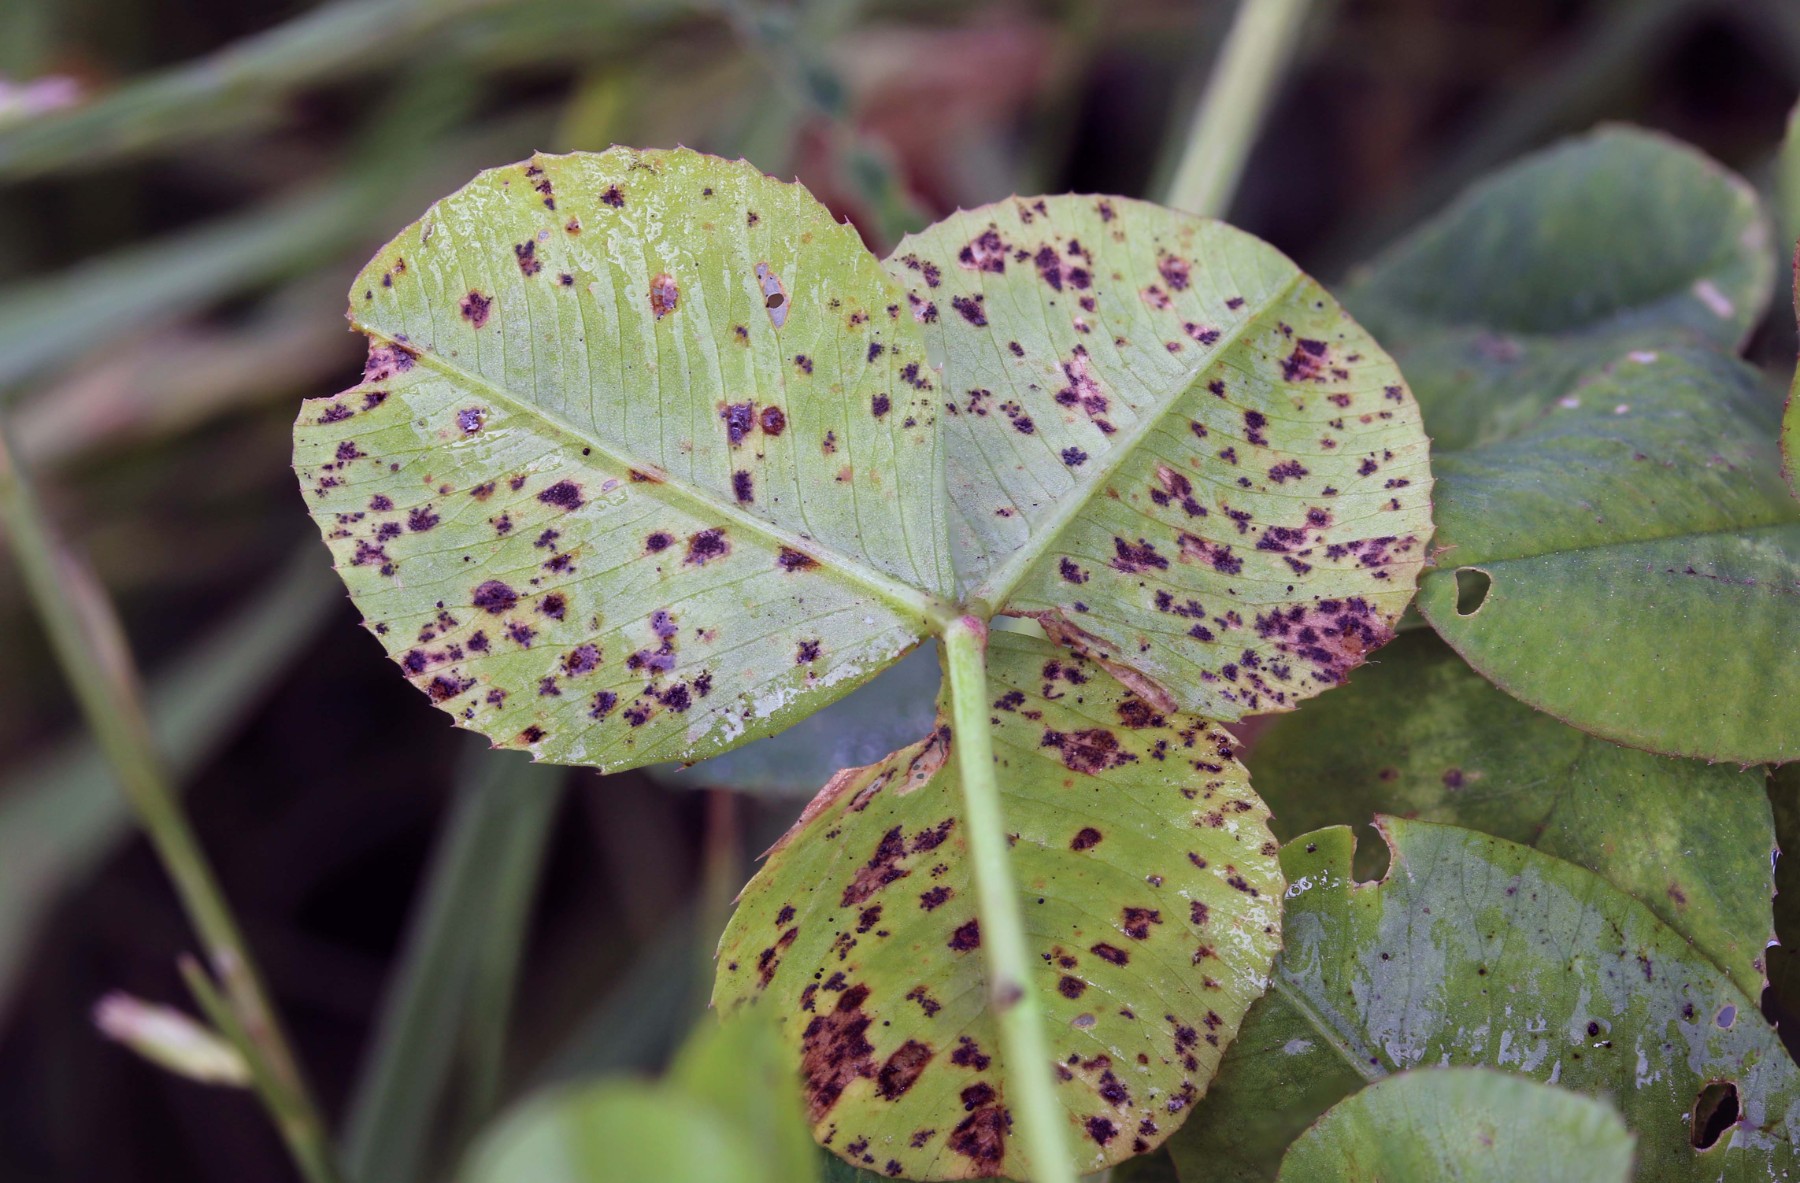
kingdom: Fungi
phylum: Ascomycota
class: Dothideomycetes
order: Mycosphaerellales
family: Mycosphaerellaceae
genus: Polythrincium
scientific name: Polythrincium trifolii
